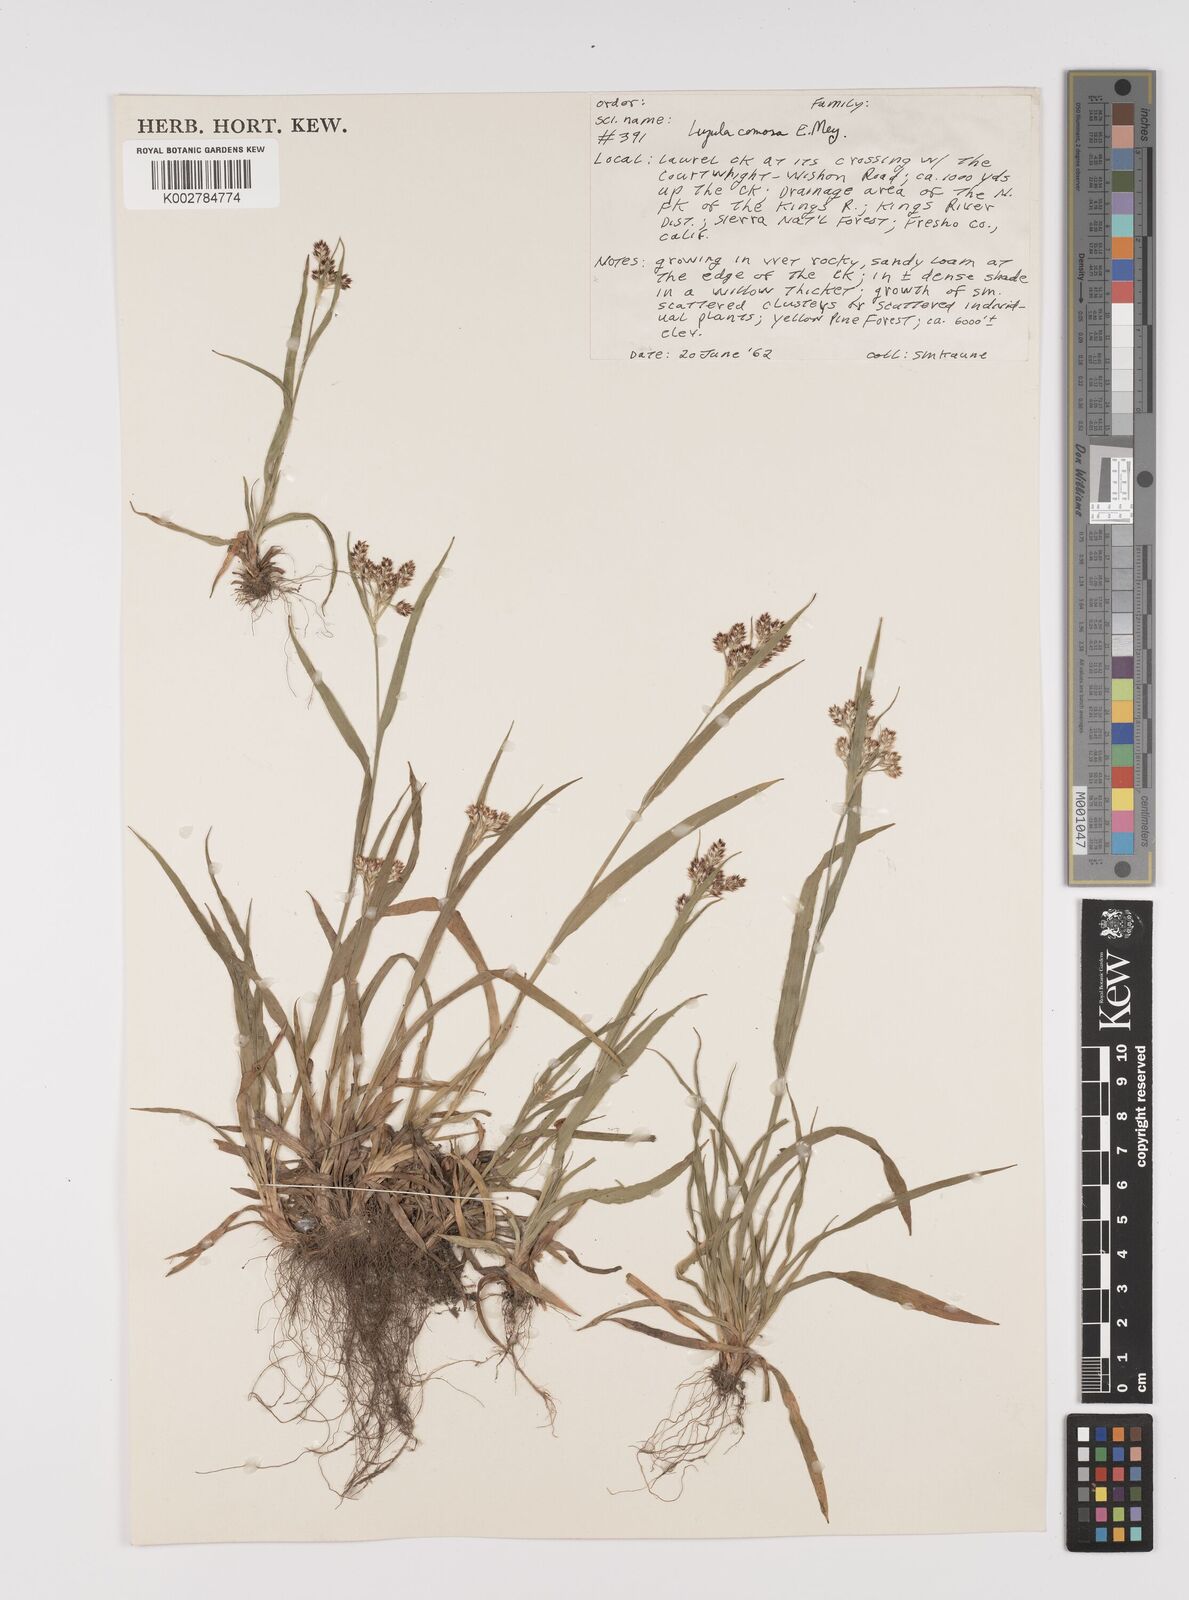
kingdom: Plantae
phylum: Tracheophyta
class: Liliopsida
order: Poales
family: Juncaceae
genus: Luzula
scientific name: Luzula comosa
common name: Pacific woodrush
